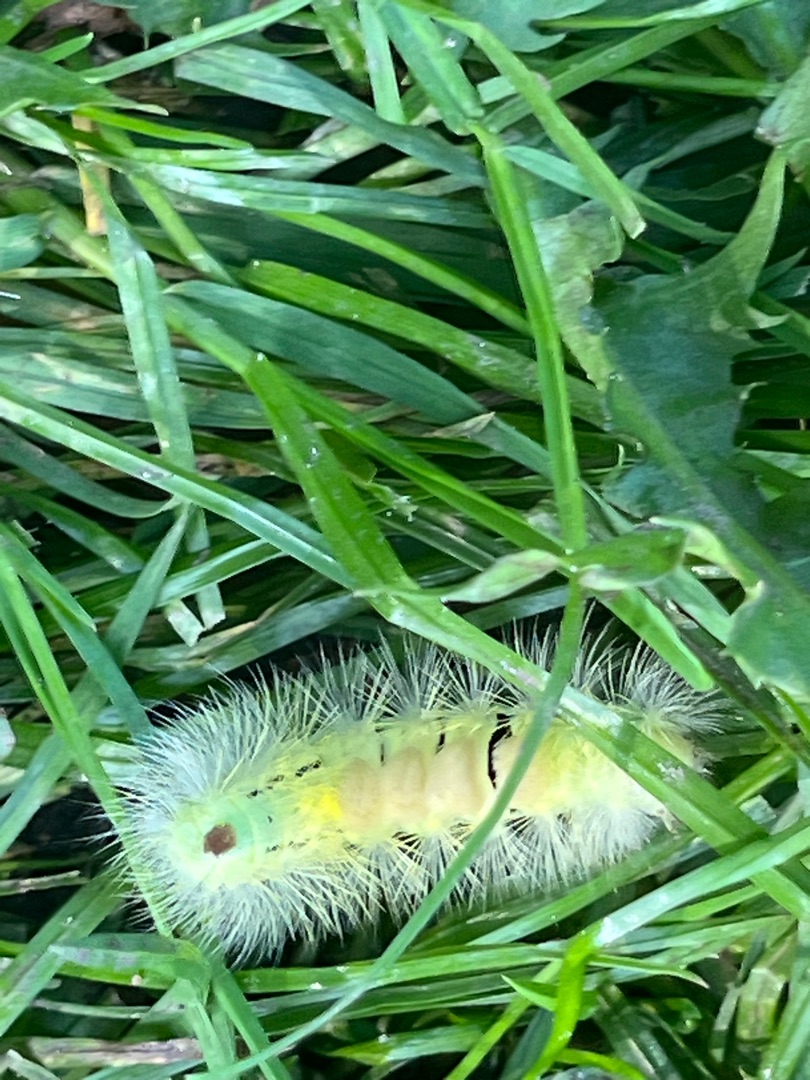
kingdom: Animalia
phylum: Arthropoda
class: Insecta
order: Lepidoptera
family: Erebidae
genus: Calliteara
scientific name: Calliteara pudibunda
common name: Bøgenonne
